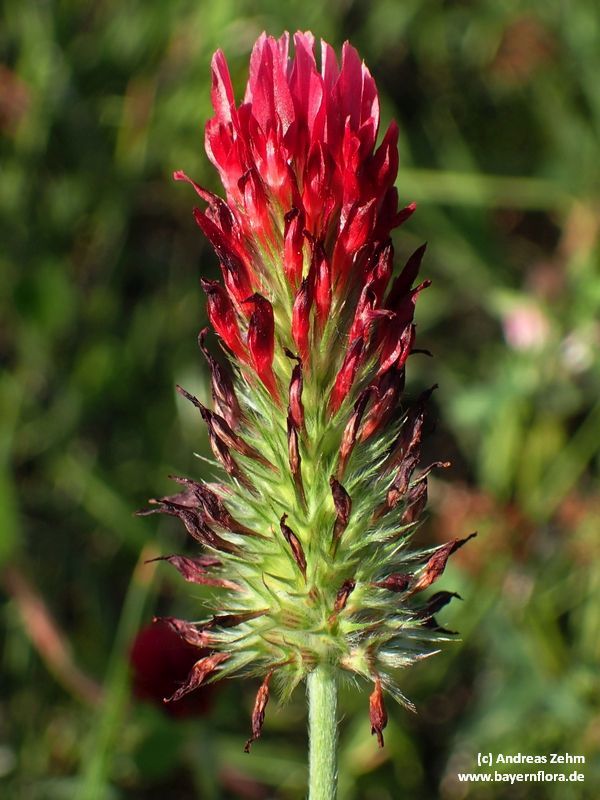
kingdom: Plantae
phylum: Tracheophyta
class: Magnoliopsida
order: Fabales
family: Fabaceae
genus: Trifolium
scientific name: Trifolium incarnatum
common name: Crimson clover
